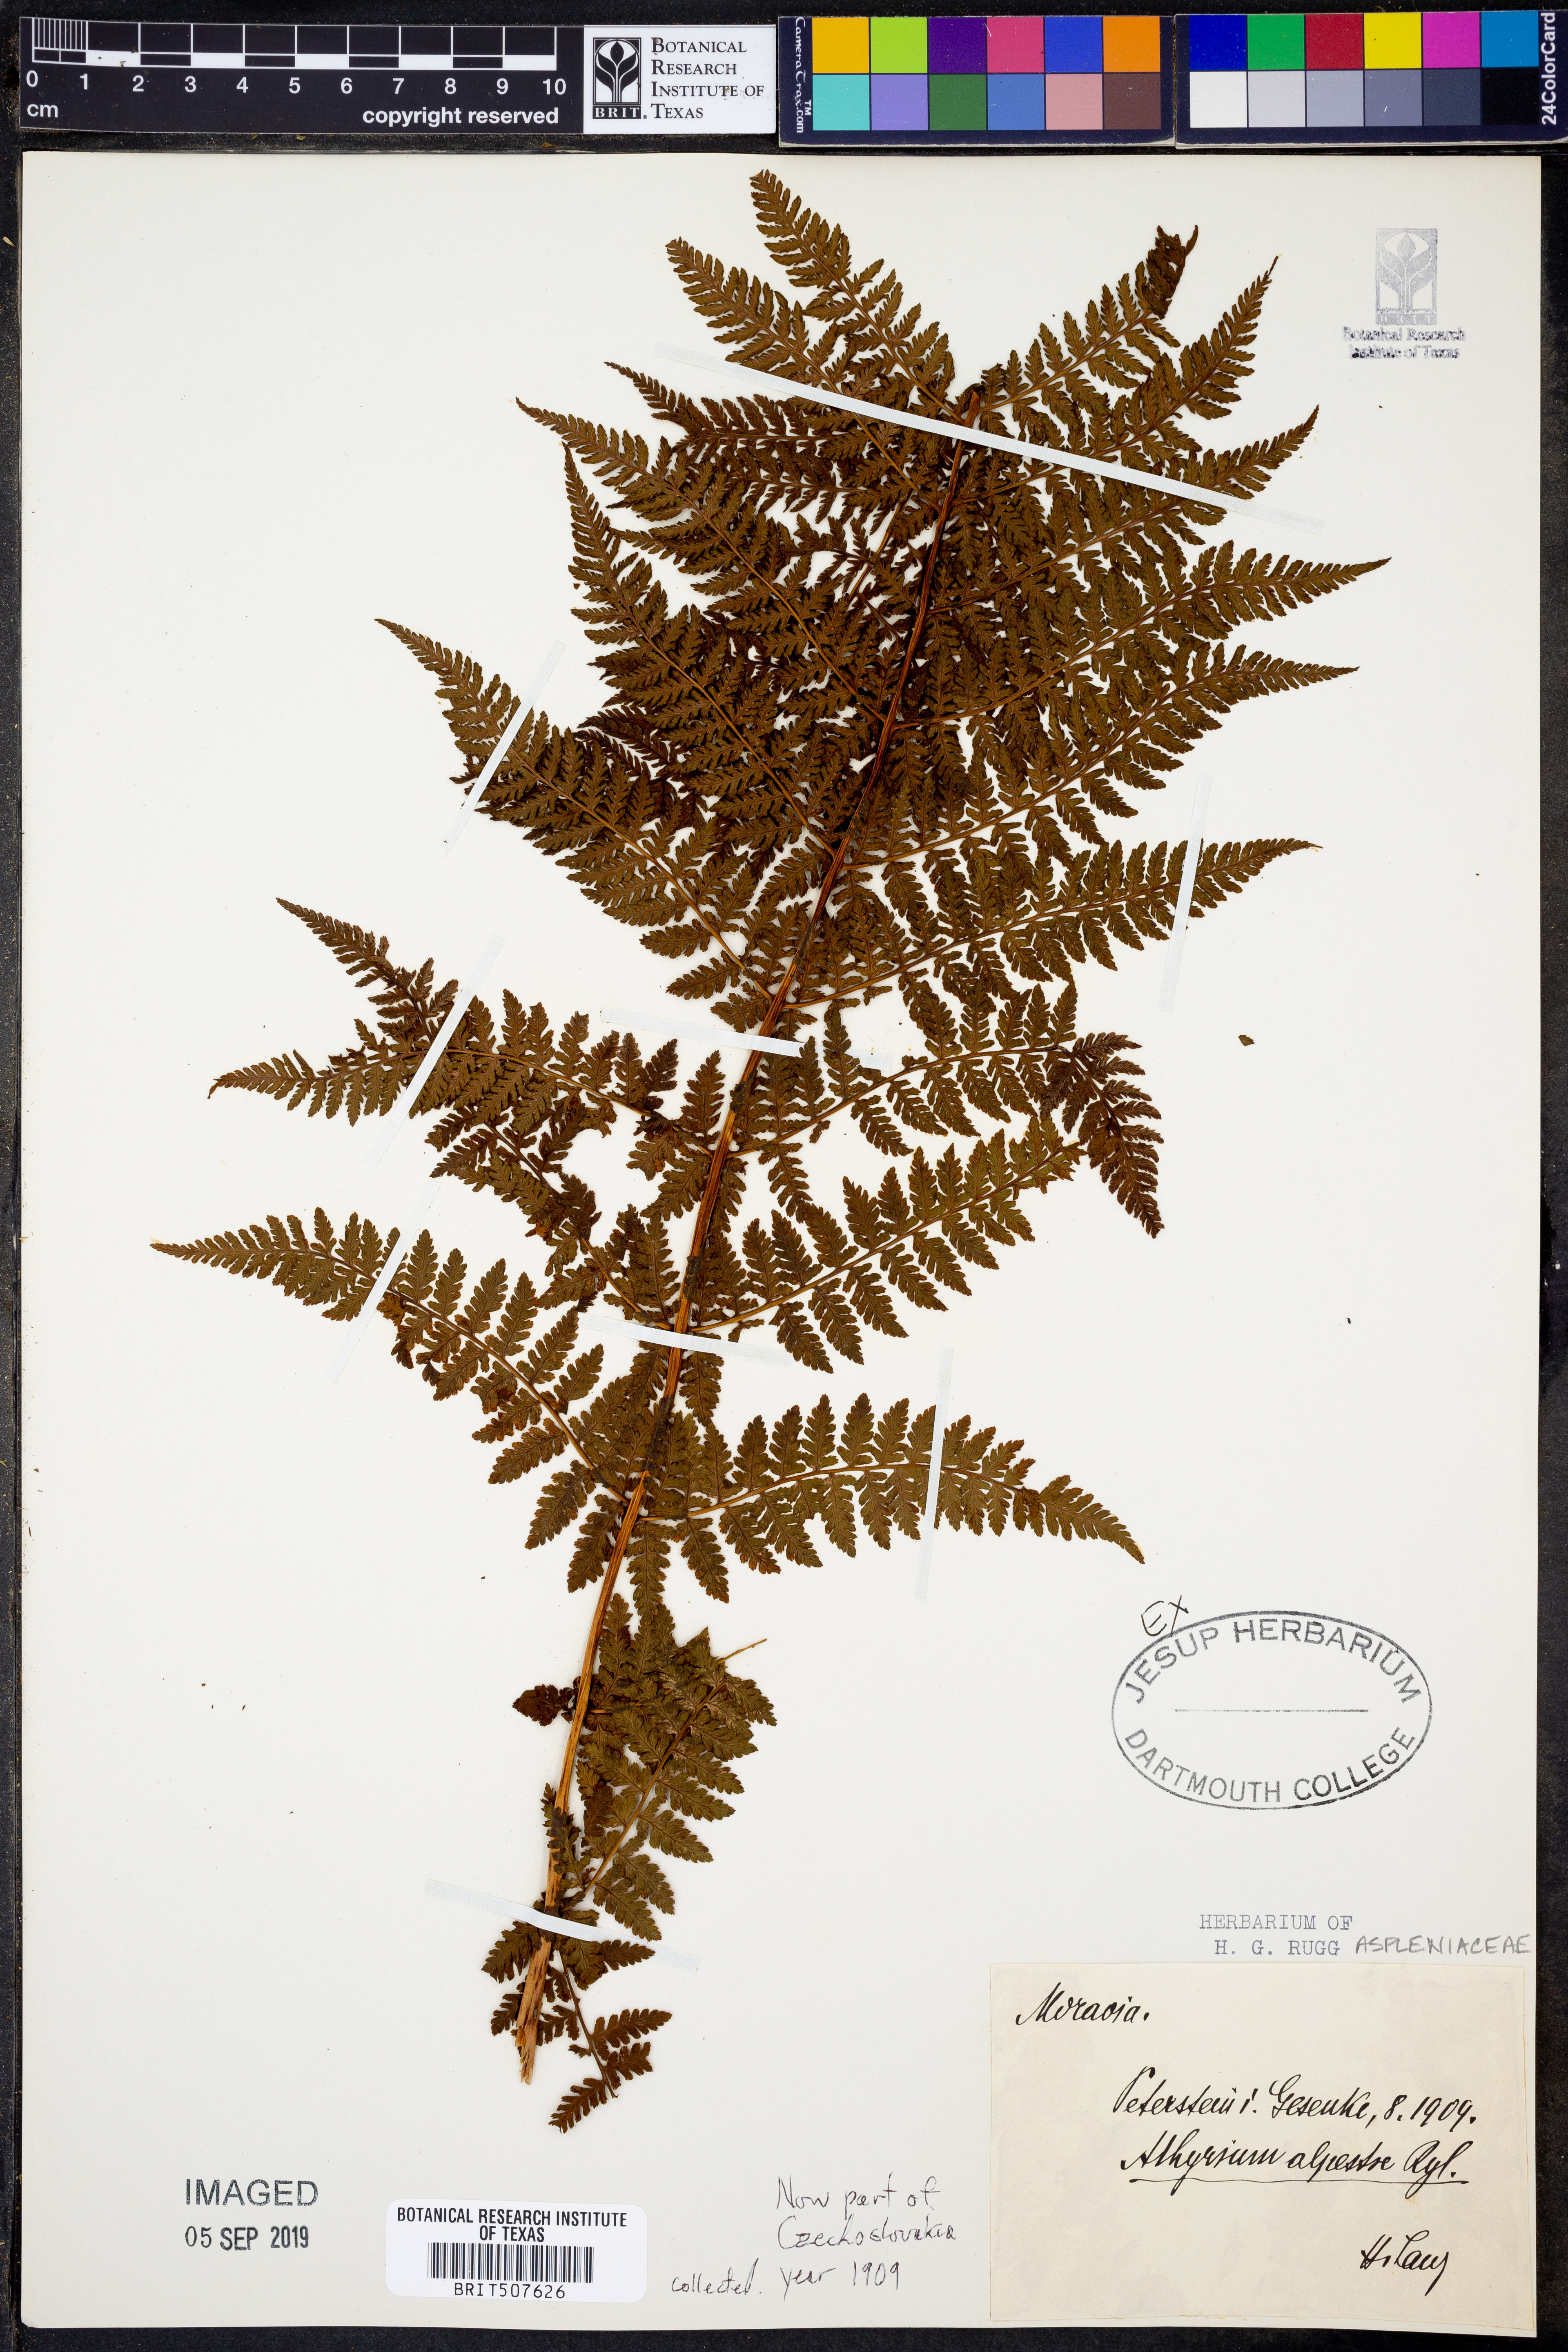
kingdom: Plantae
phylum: Tracheophyta
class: Polypodiopsida
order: Polypodiales
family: Athyriaceae
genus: Athyrium
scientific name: Athyrium filix-femina
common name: Lady fern
